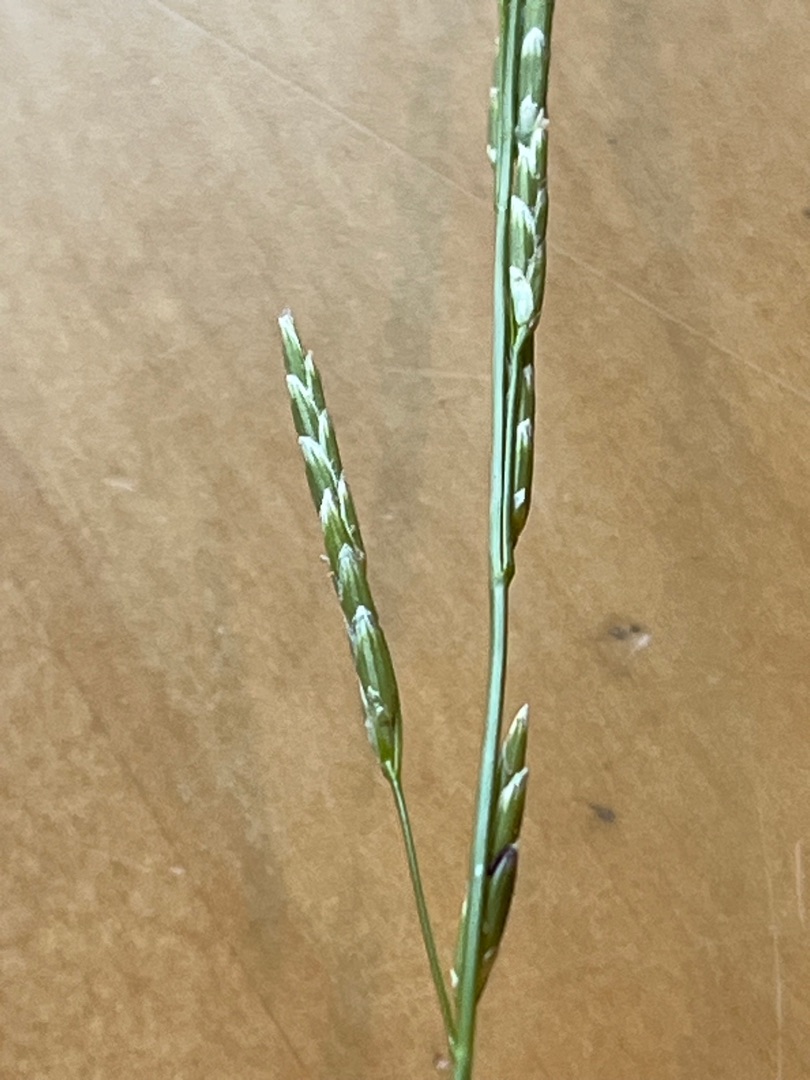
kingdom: Plantae
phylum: Tracheophyta
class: Liliopsida
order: Poales
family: Poaceae
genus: Glyceria
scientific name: Glyceria fluitans
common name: Manna-sødgræs
